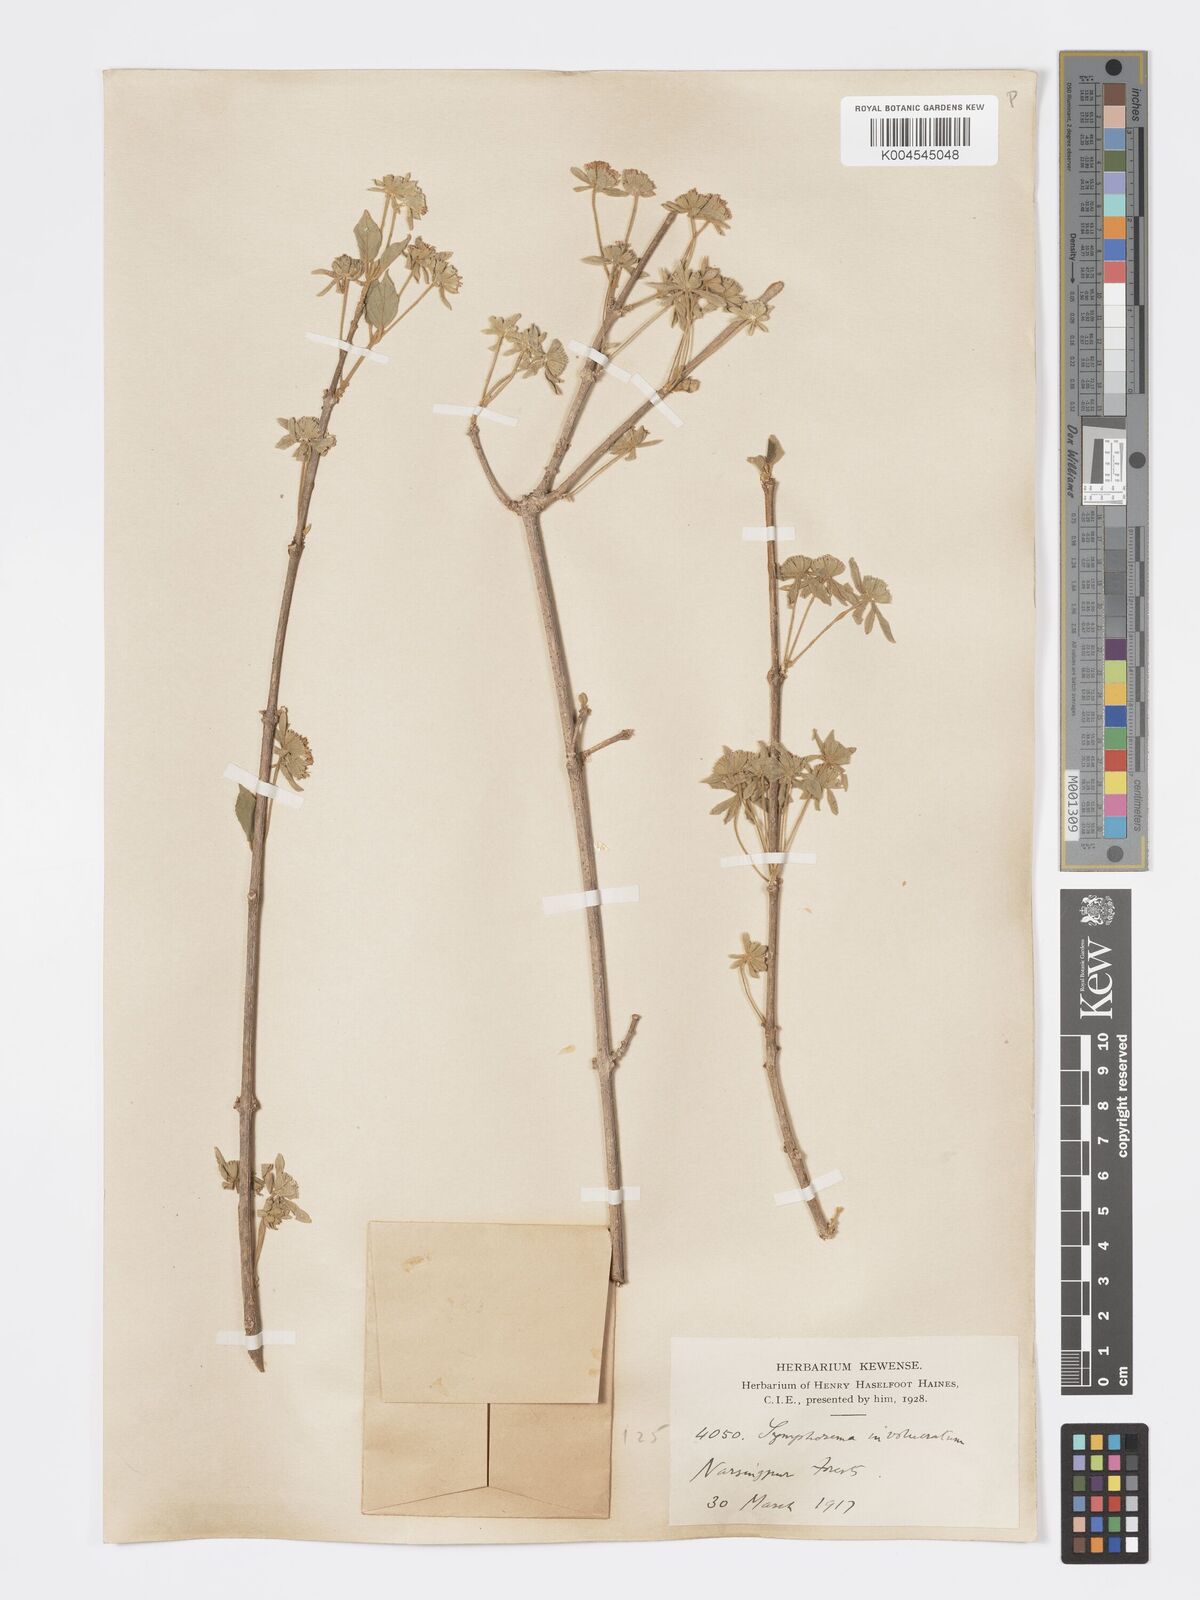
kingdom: Plantae
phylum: Tracheophyta
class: Magnoliopsida
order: Lamiales
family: Lamiaceae
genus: Symphorema
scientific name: Symphorema involucratum
